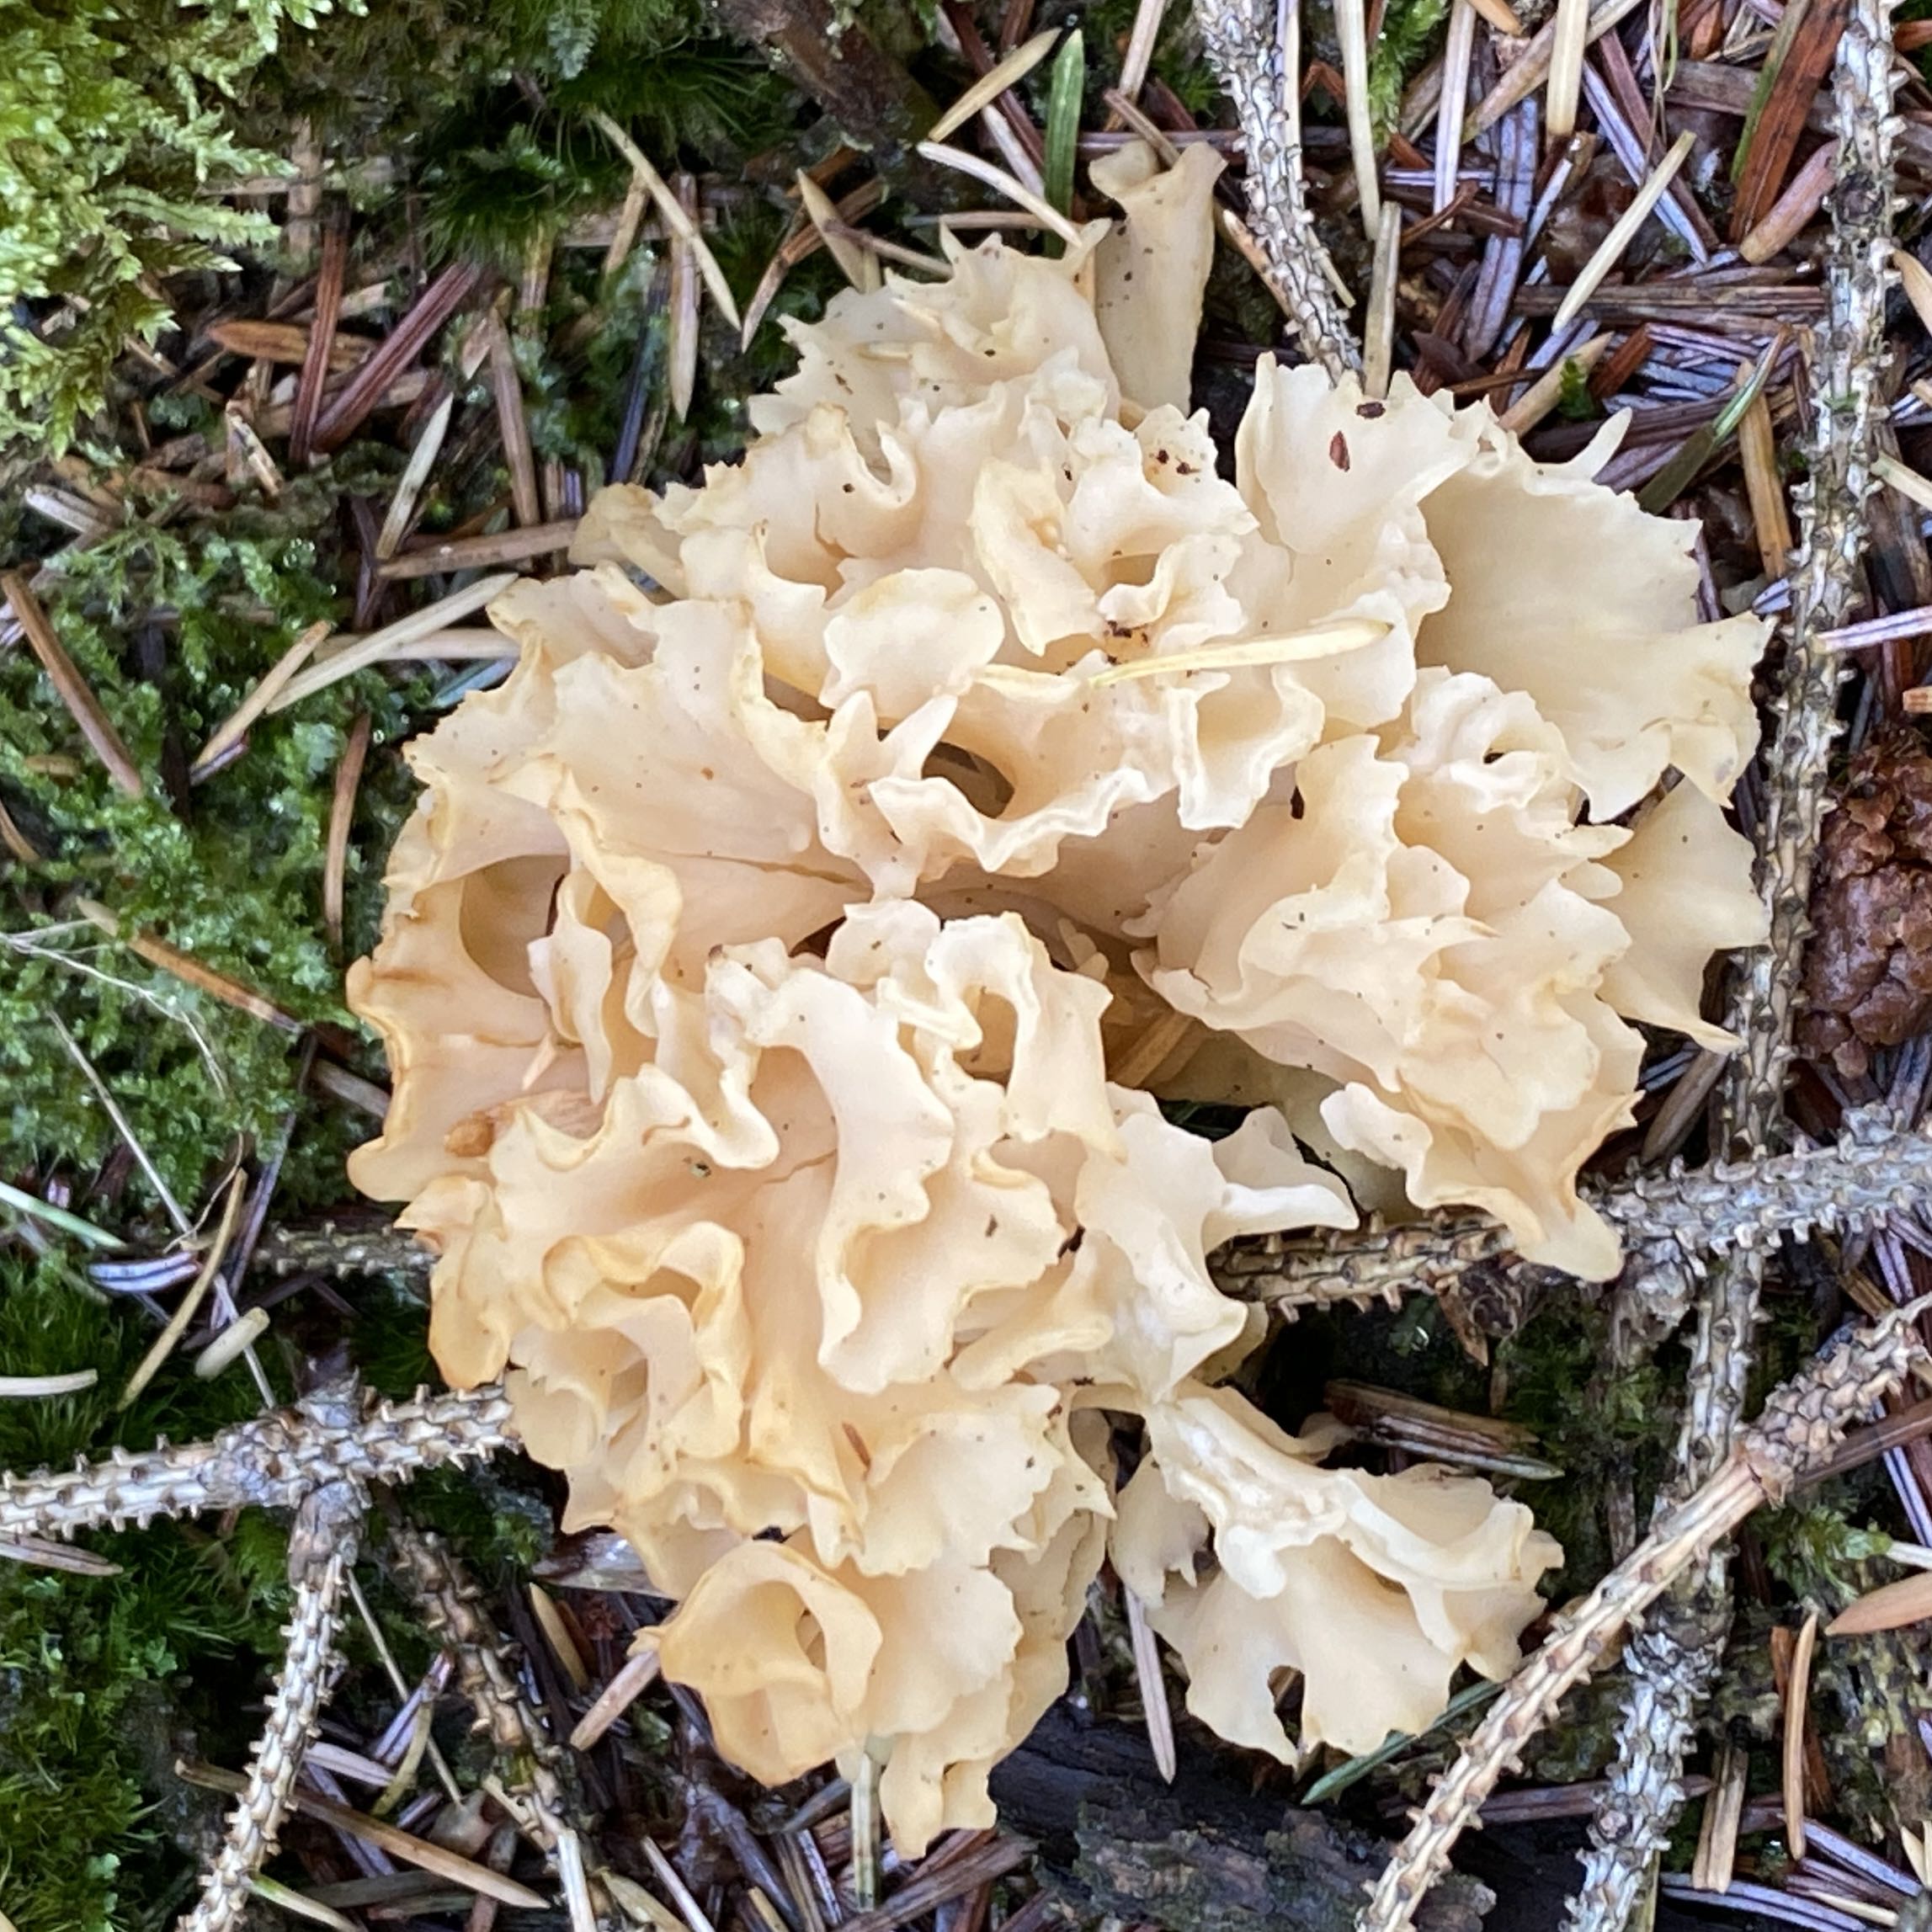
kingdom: Fungi
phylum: Basidiomycota
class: Agaricomycetes
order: Polyporales
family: Sparassidaceae
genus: Sparassis
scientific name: Sparassis crispa
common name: kruset blomkålssvamp
